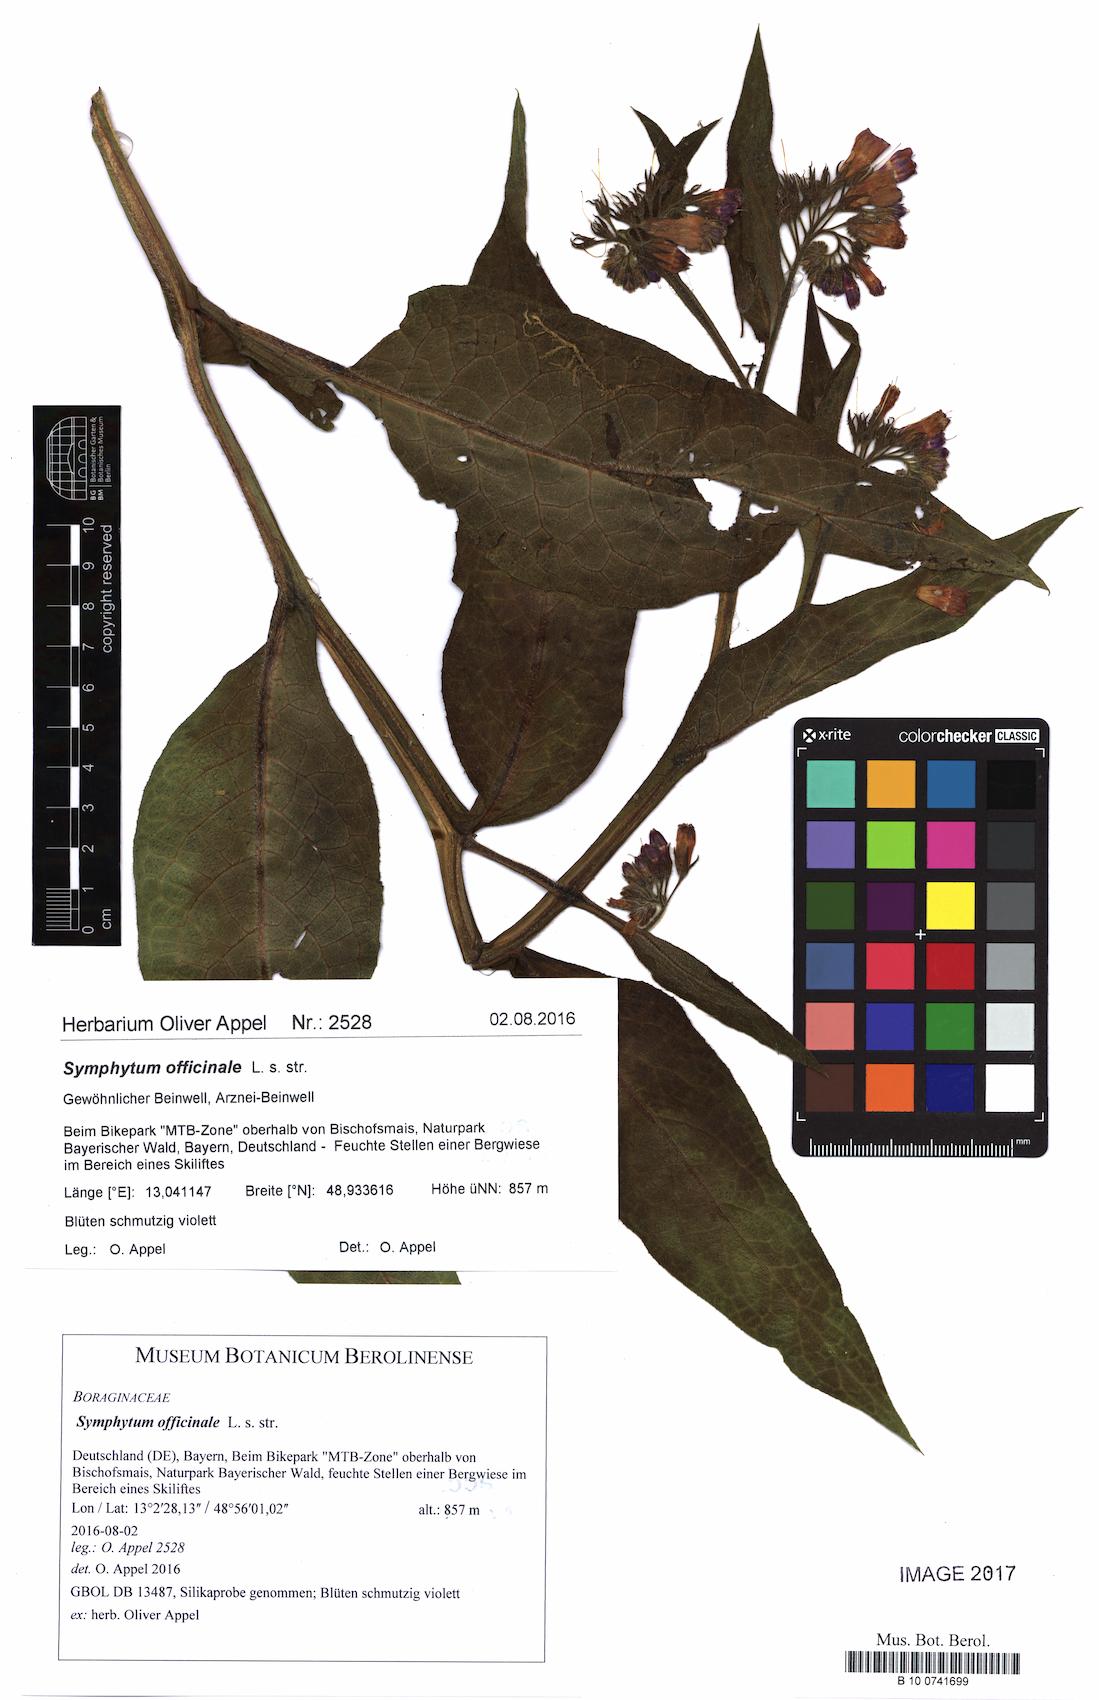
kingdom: Plantae
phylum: Tracheophyta
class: Magnoliopsida
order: Boraginales
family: Boraginaceae
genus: Symphytum
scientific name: Symphytum officinale
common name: Common comfrey
